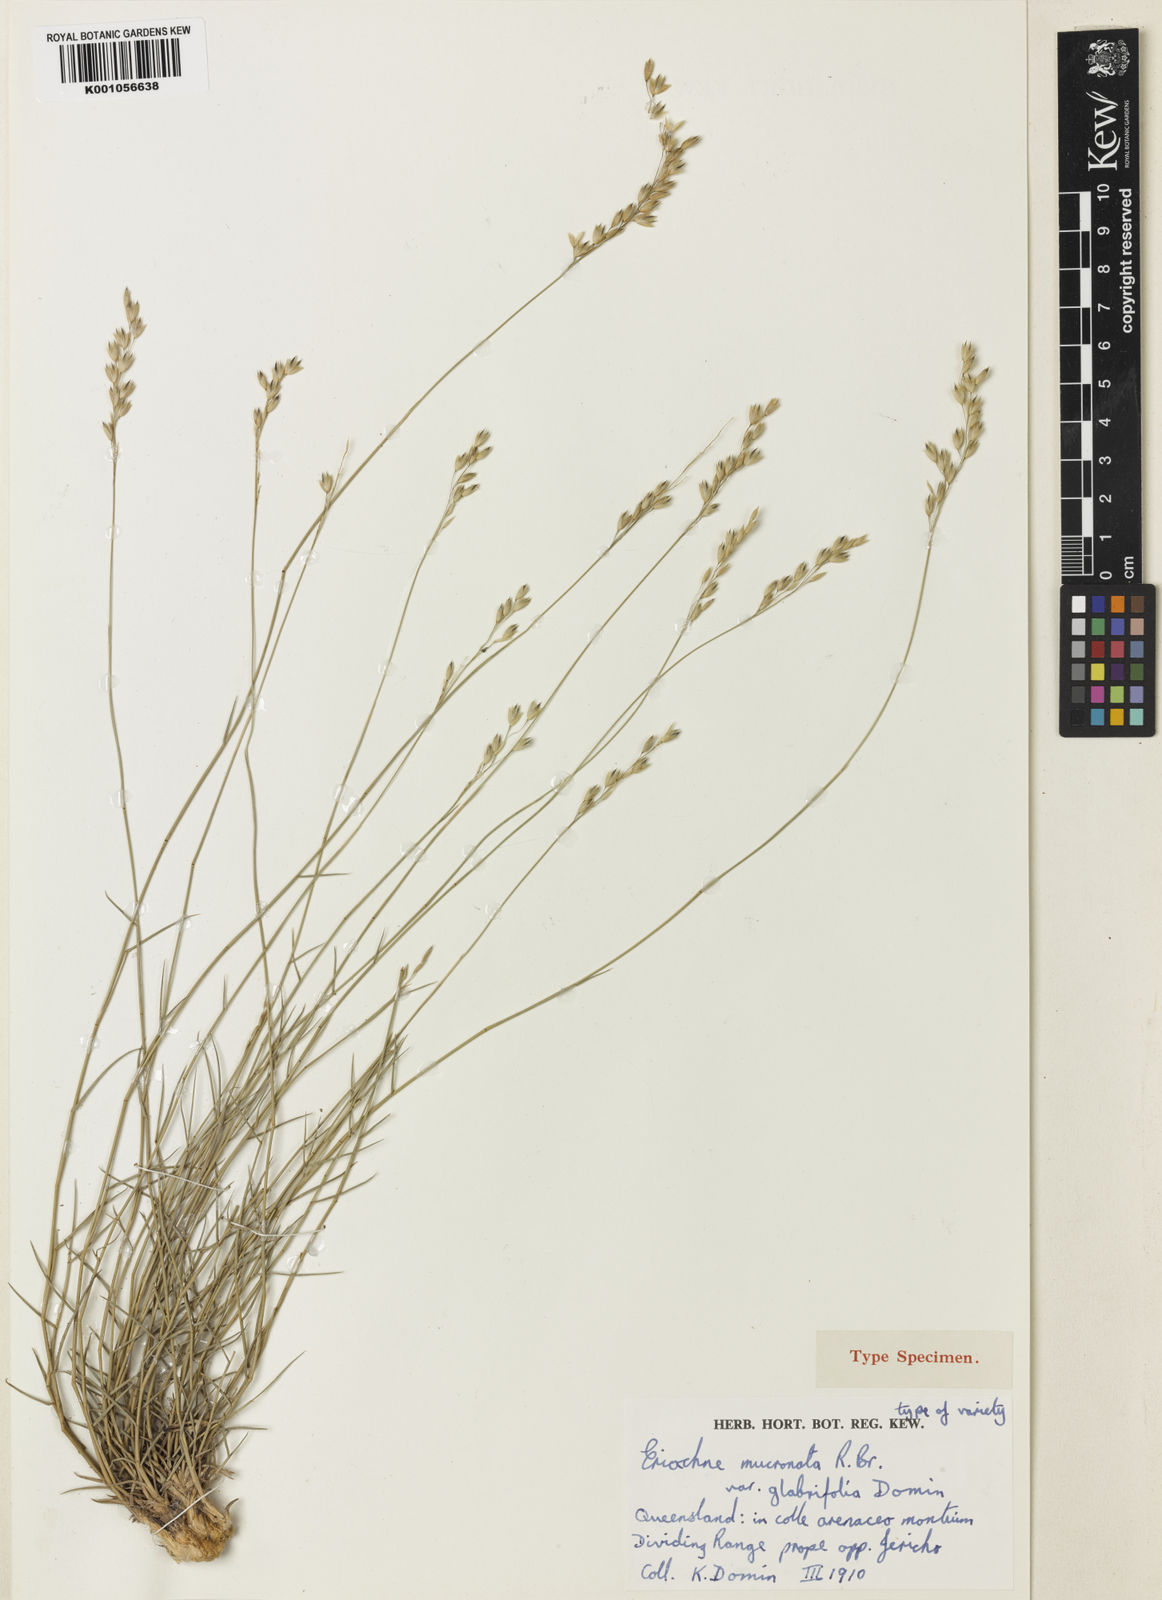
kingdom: Plantae
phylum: Tracheophyta
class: Liliopsida
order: Poales
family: Poaceae
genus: Eriachne
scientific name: Eriachne obtusa
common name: Northern wanderrie grass
